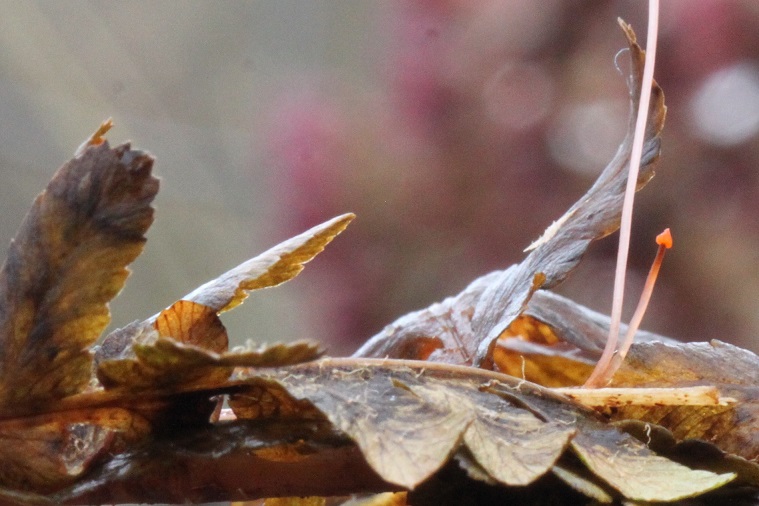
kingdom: Fungi
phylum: Basidiomycota
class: Agaricomycetes
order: Agaricales
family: Mycenaceae
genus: Mycena
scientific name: Mycena pterigena
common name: bregne-huesvamp
